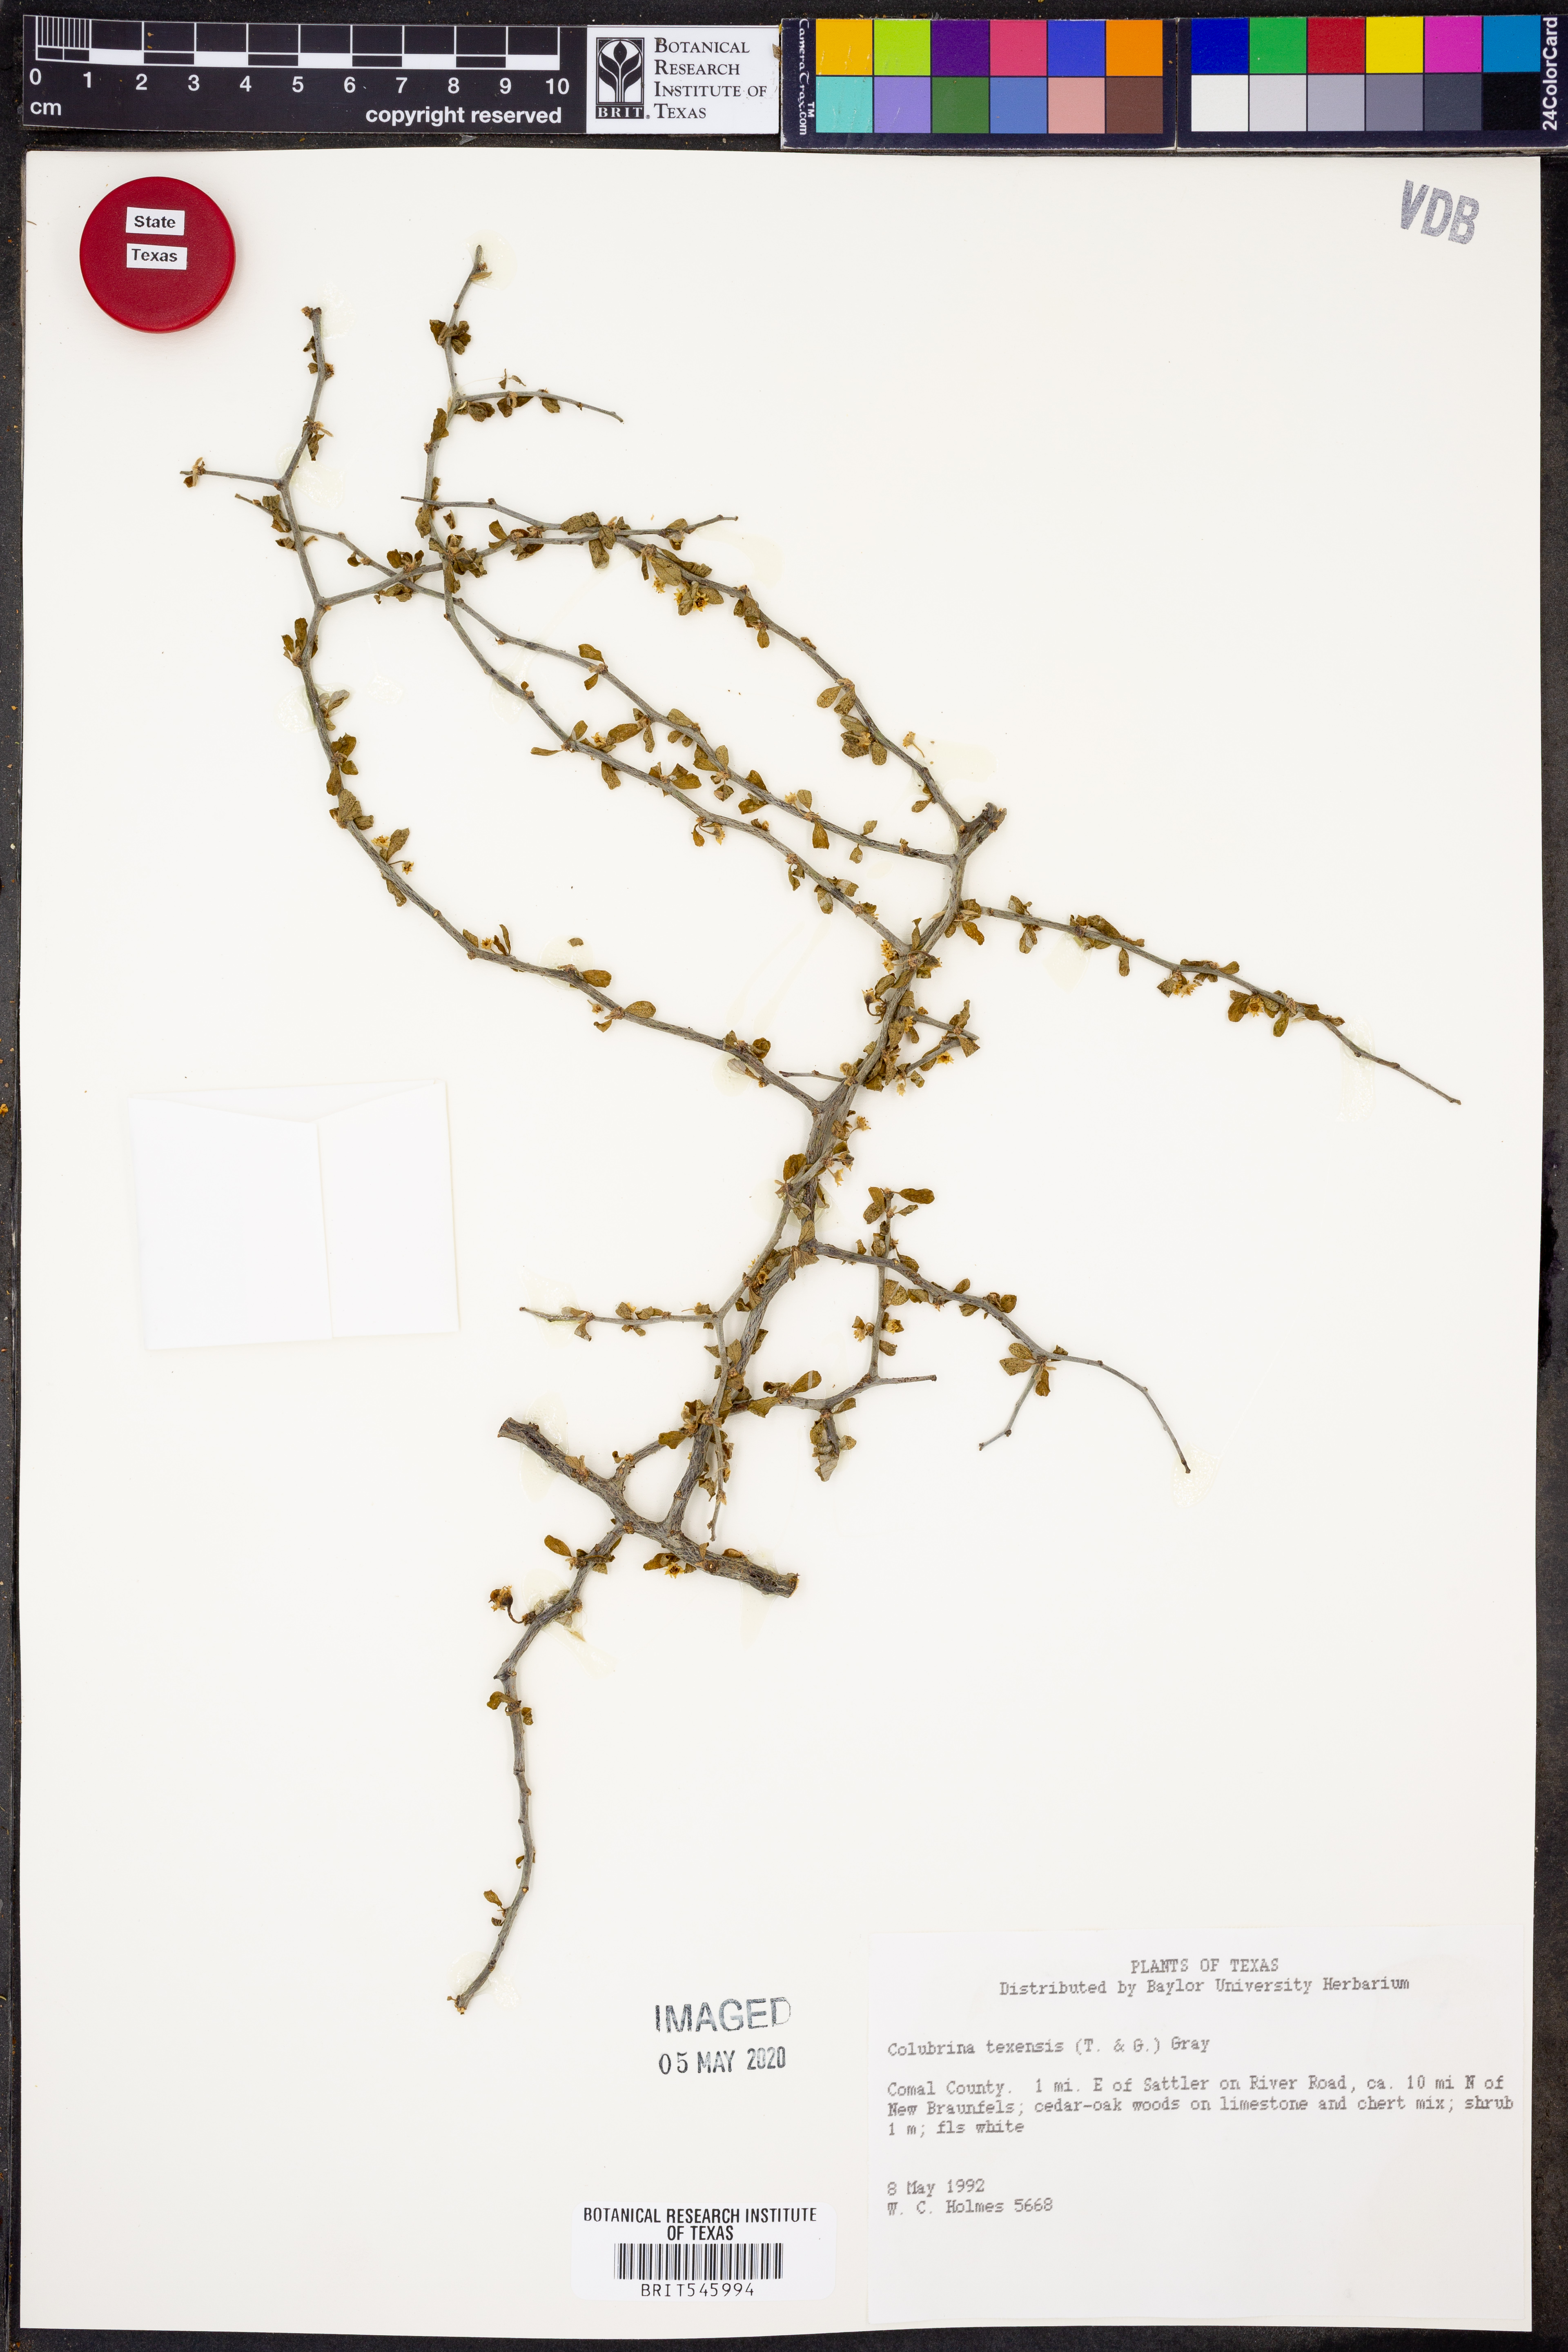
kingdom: Plantae
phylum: Tracheophyta
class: Magnoliopsida
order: Rosales
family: Rhamnaceae
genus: Colubrina
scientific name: Colubrina texensis
